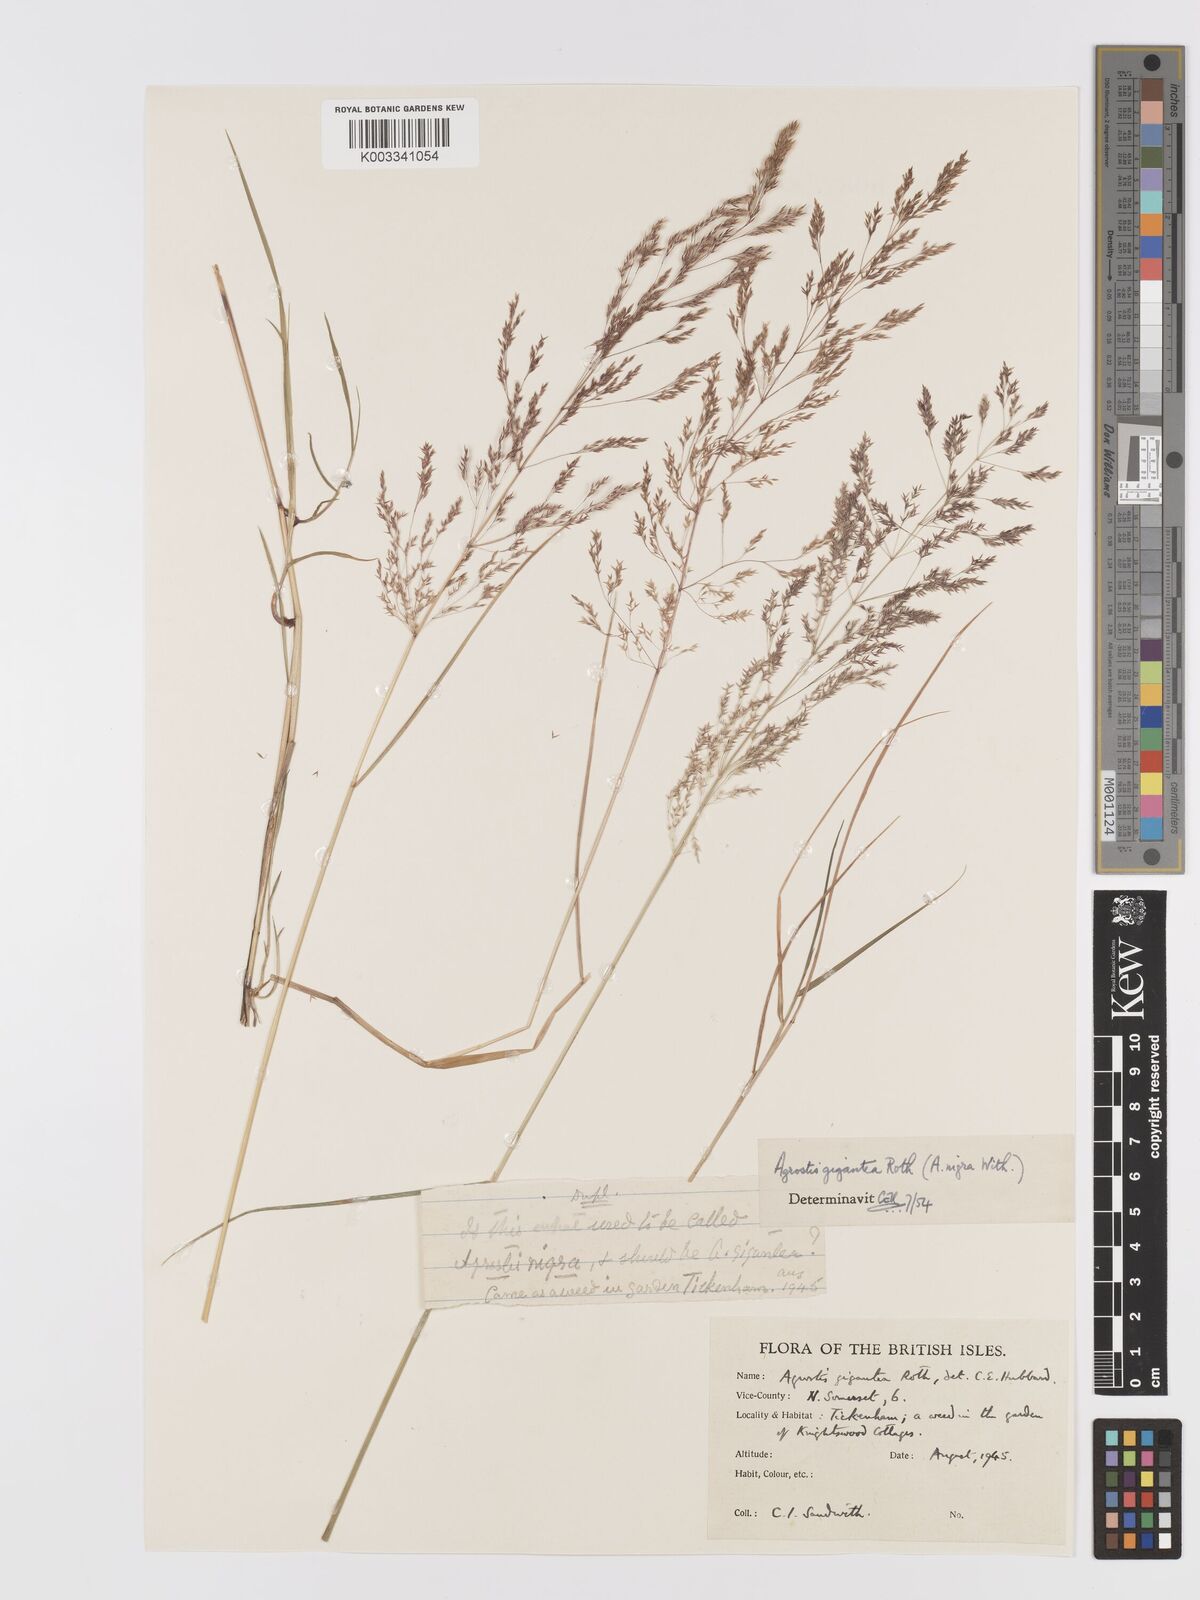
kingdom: Plantae
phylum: Tracheophyta
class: Liliopsida
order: Poales
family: Poaceae
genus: Agrostis
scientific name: Agrostis gigantea
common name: Black bent
